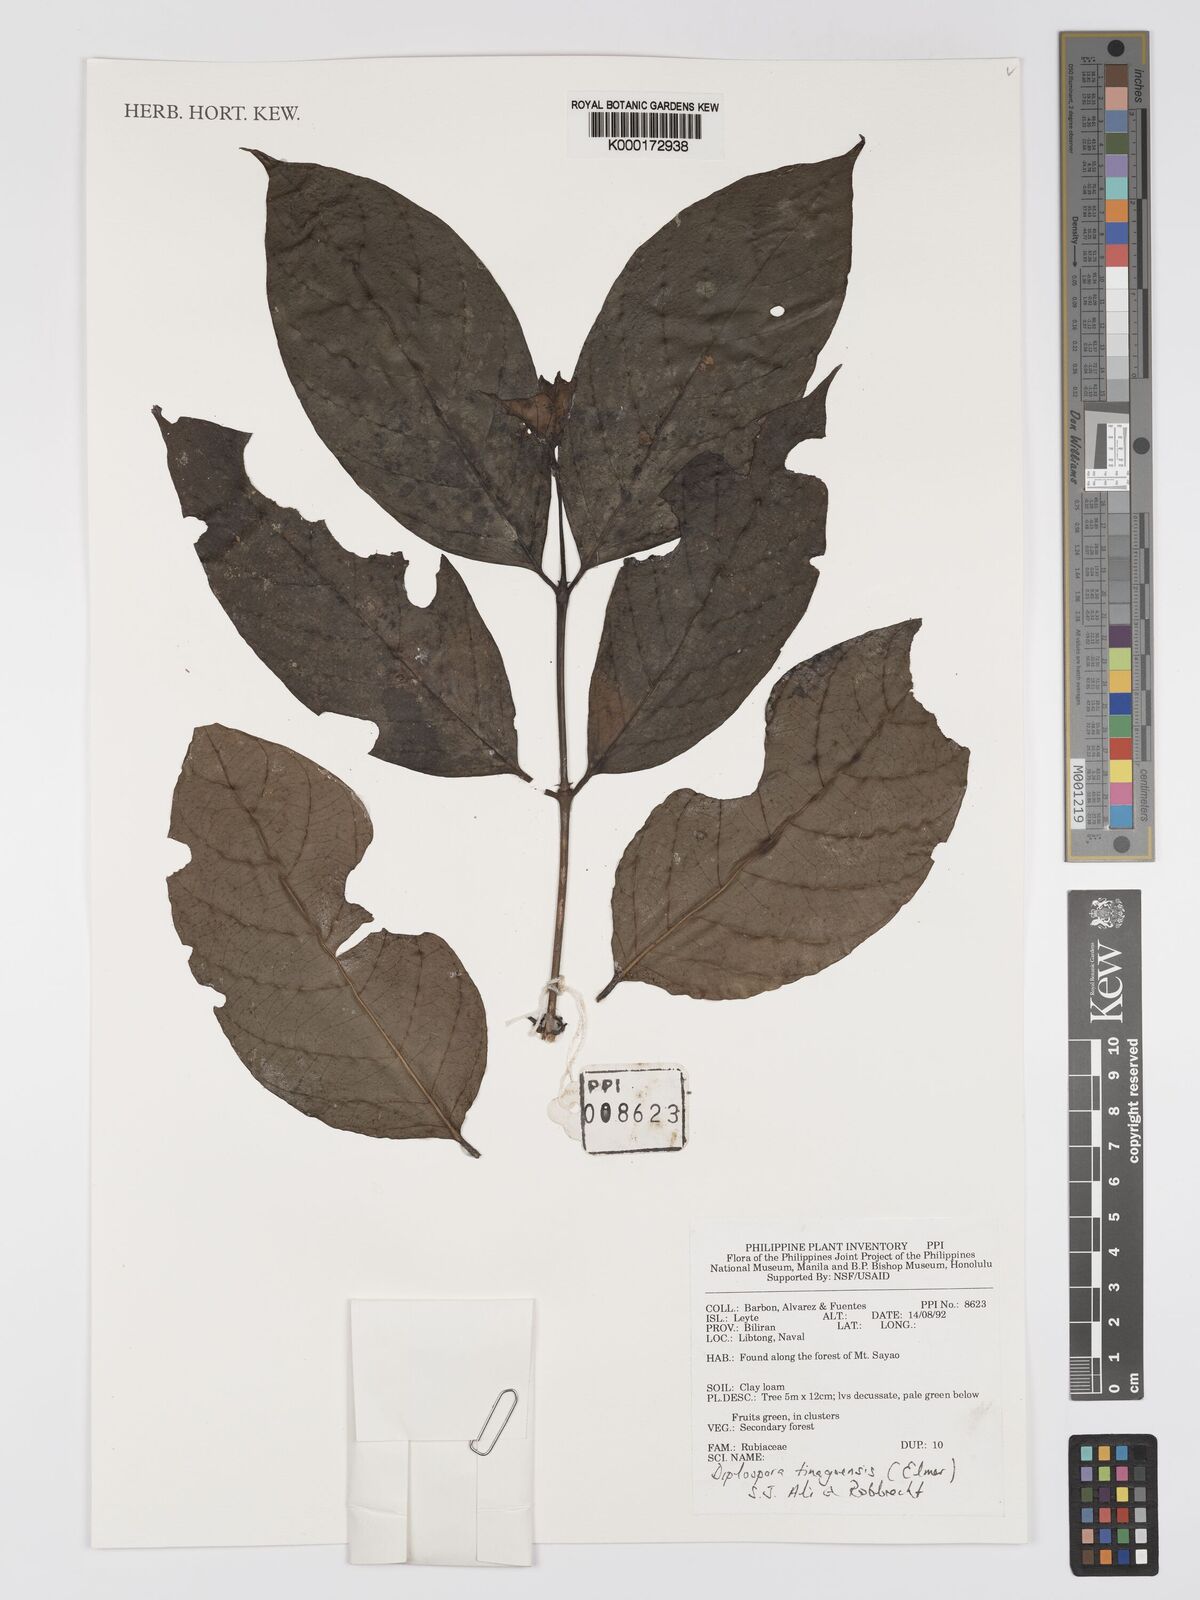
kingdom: Plantae
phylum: Tracheophyta
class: Magnoliopsida
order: Gentianales
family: Rubiaceae
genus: Diplospora
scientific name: Diplospora tinagoensis
